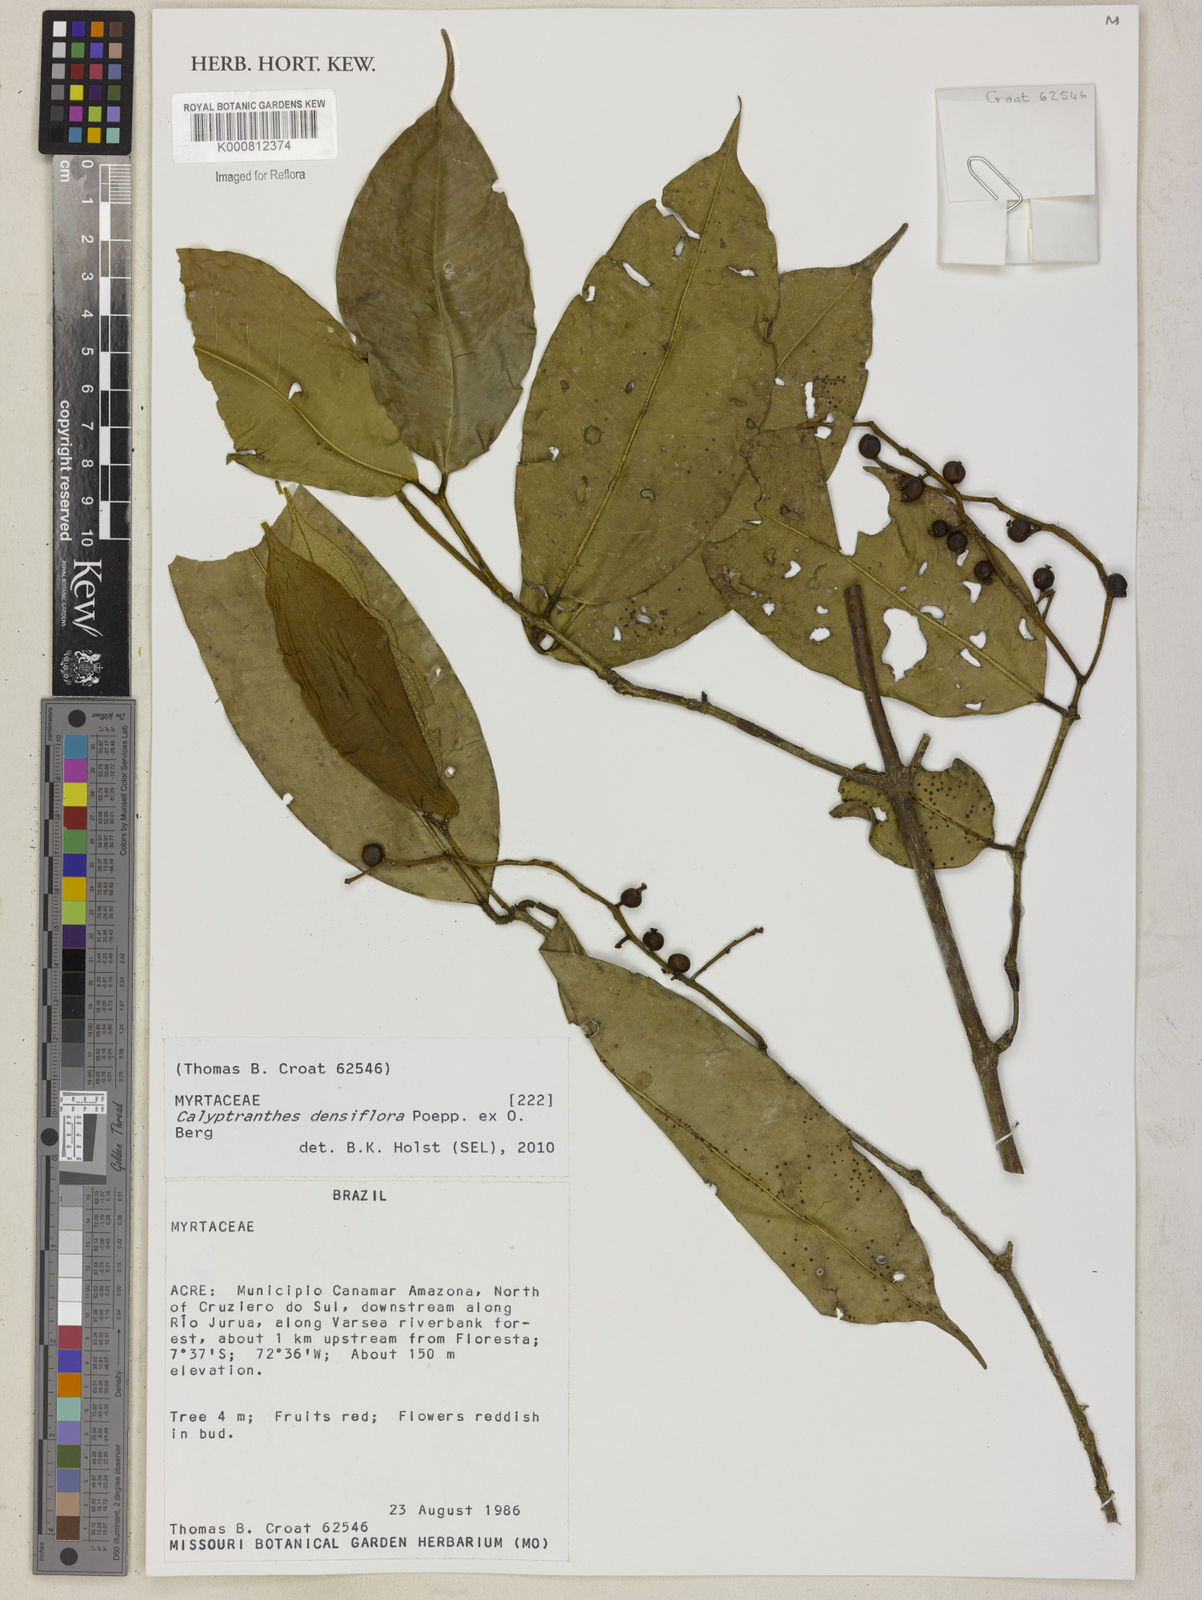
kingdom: Plantae
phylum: Tracheophyta
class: Magnoliopsida
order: Myrtales
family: Myrtaceae
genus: Myrcia
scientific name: Myrcia densiflora
